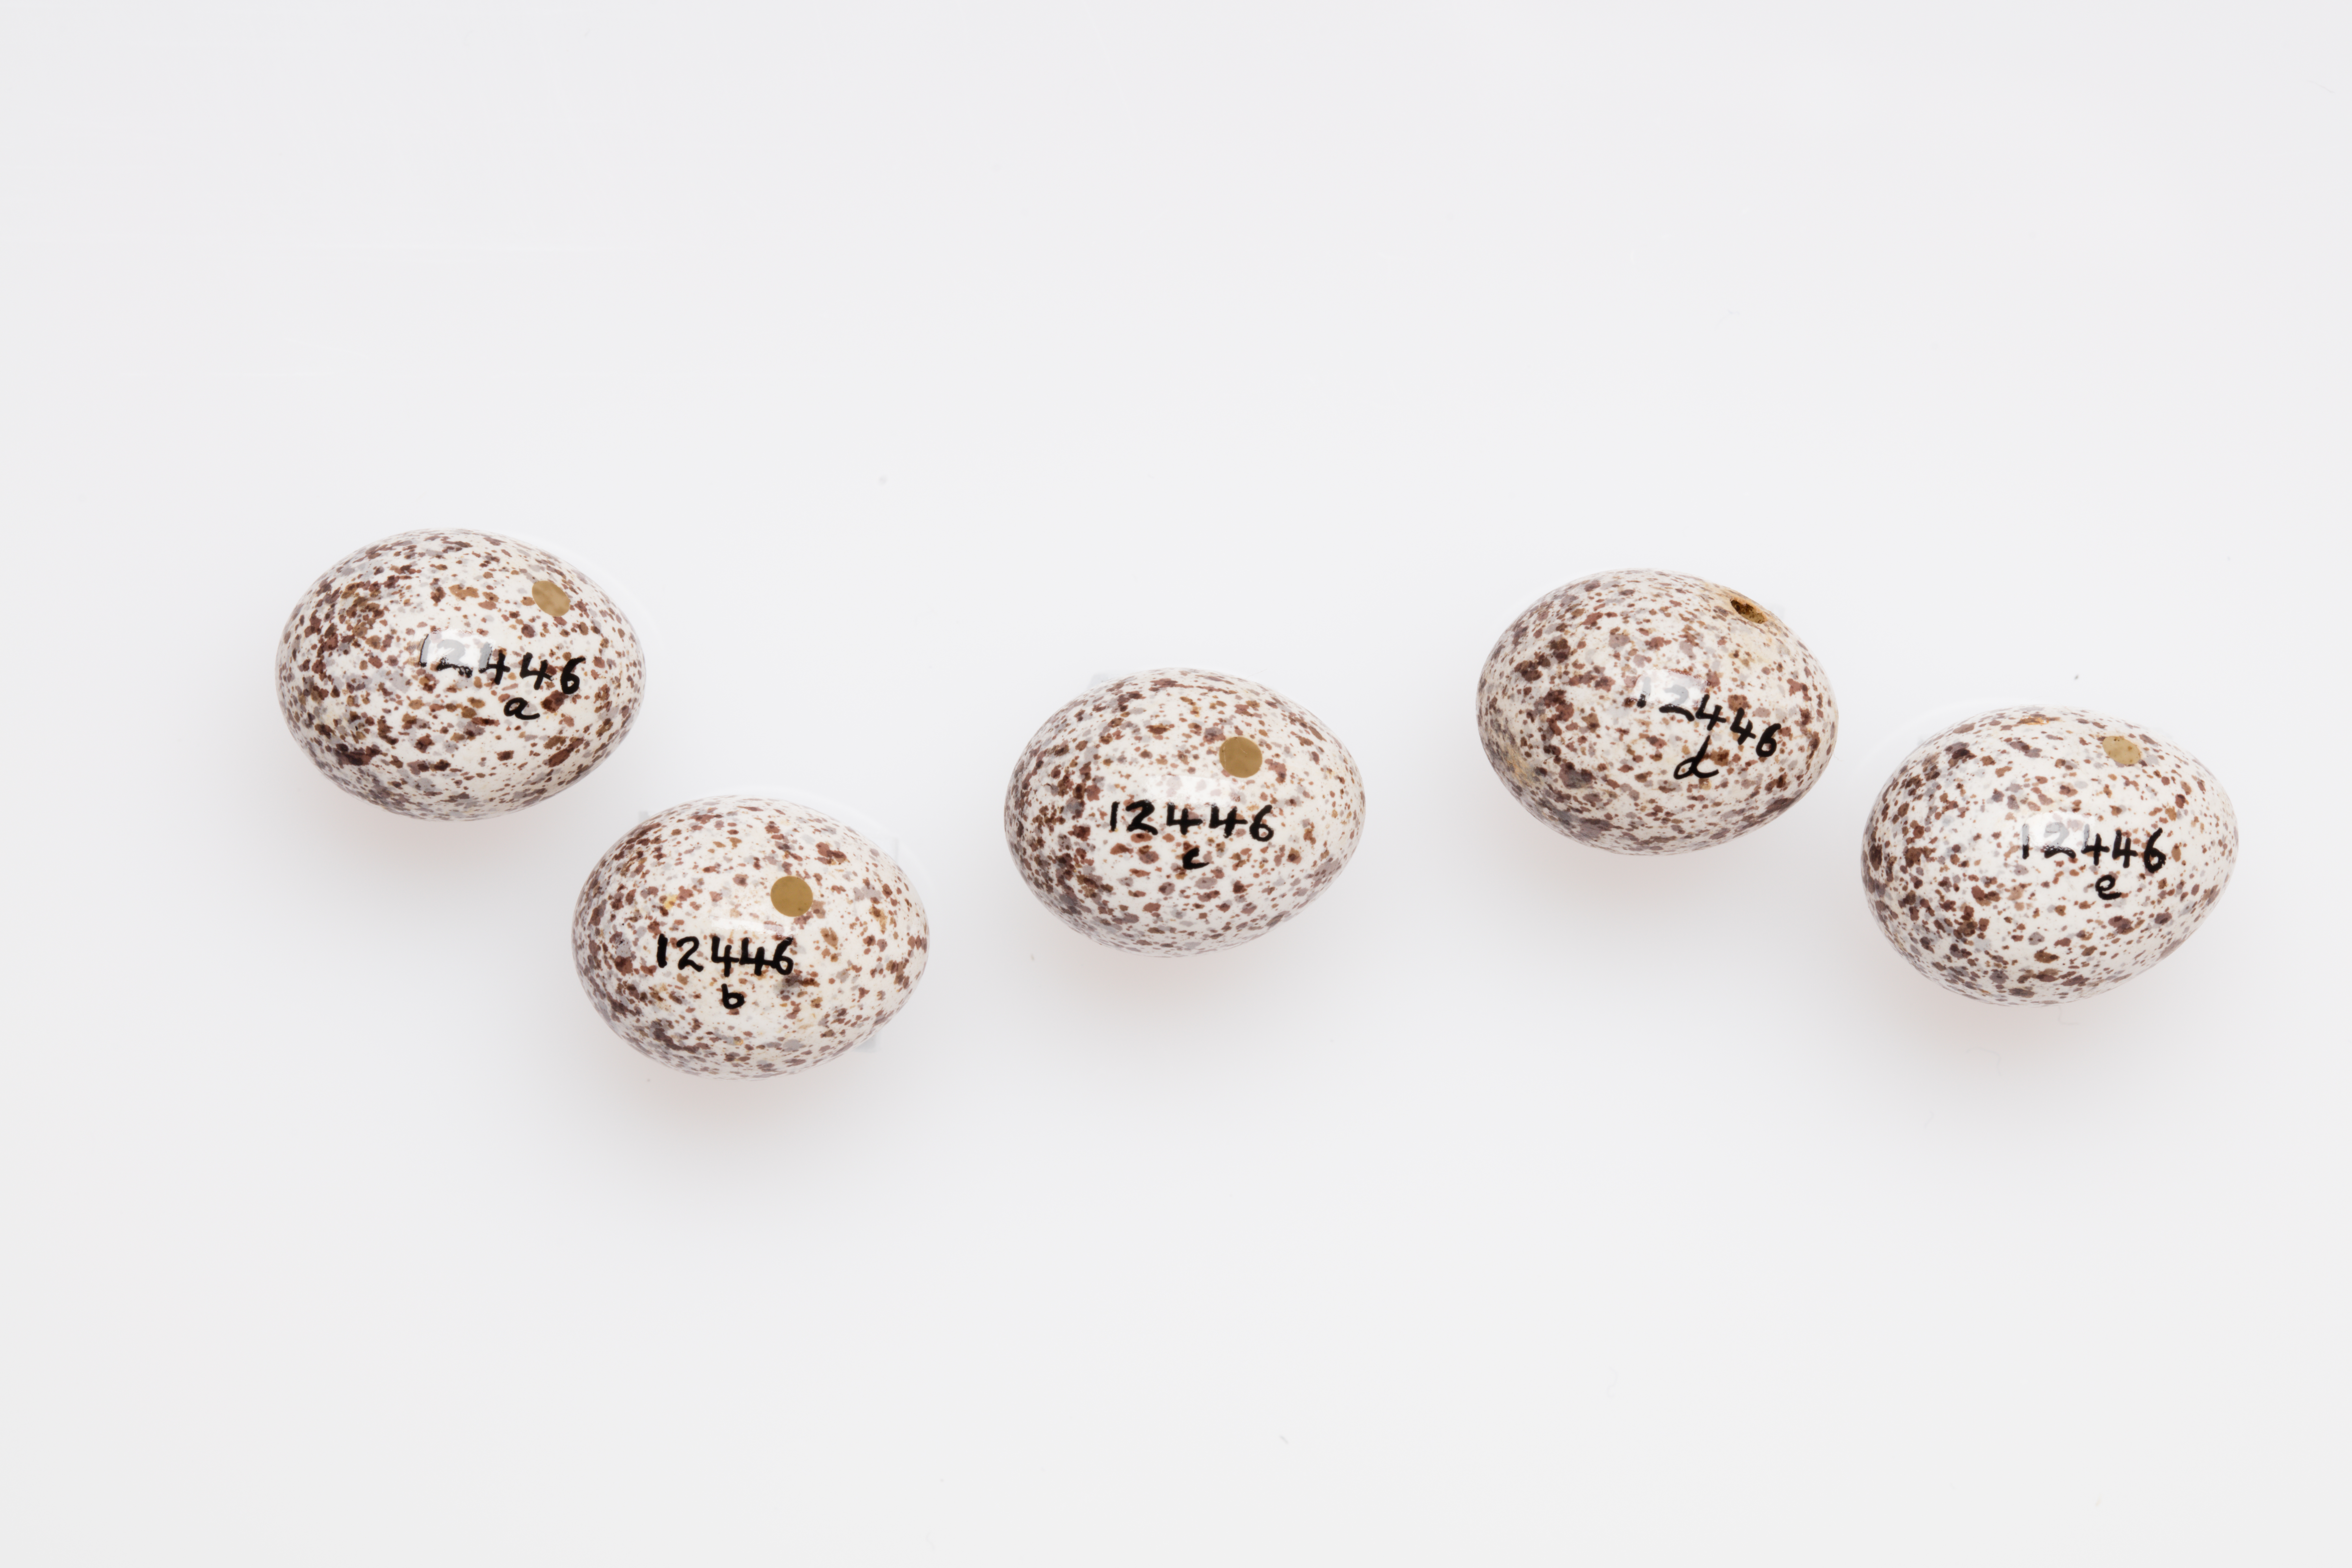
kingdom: Animalia
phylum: Chordata
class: Aves
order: Passeriformes
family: Phylloscopidae
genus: Phylloscopus
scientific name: Phylloscopus sibillatrix
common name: Wood warbler
